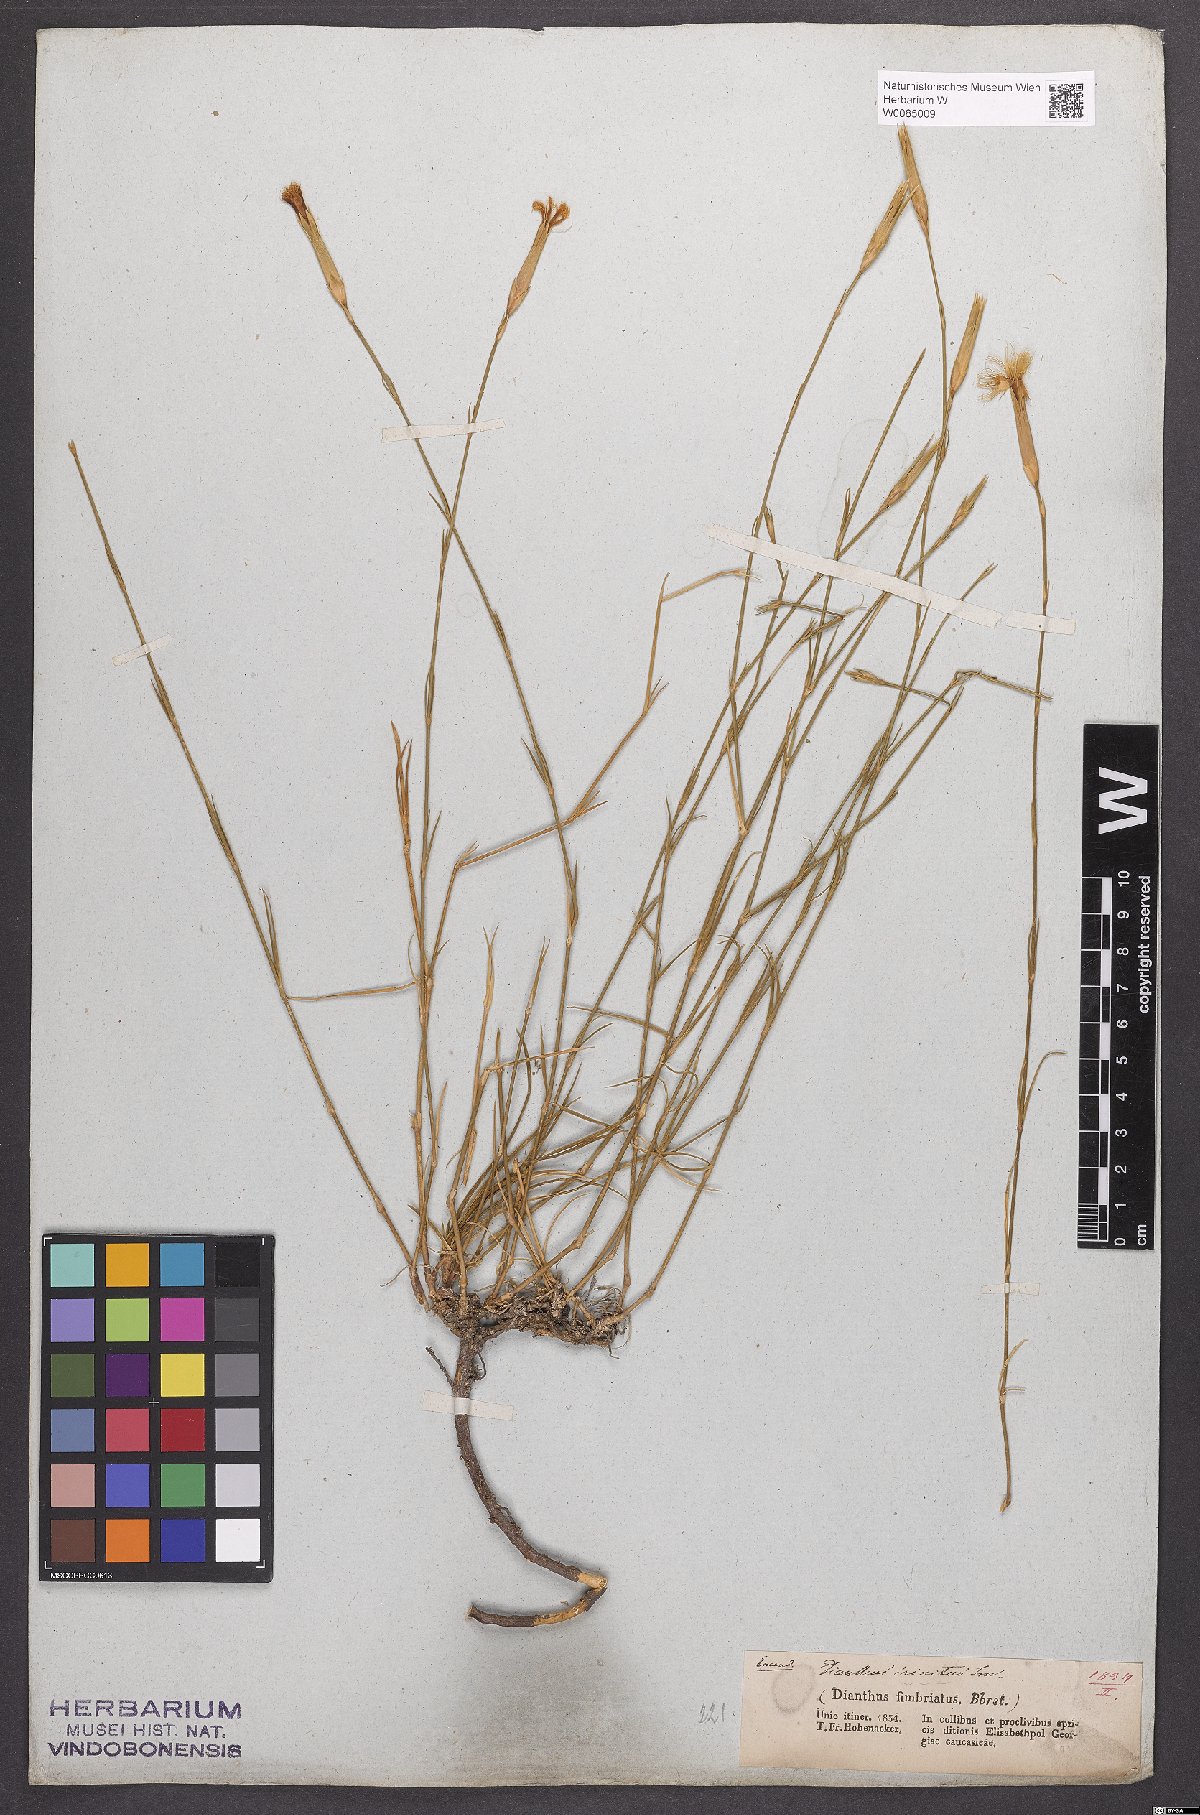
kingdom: Plantae
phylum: Tracheophyta
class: Magnoliopsida
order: Caryophyllales
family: Caryophyllaceae
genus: Dianthus
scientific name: Dianthus broteri
